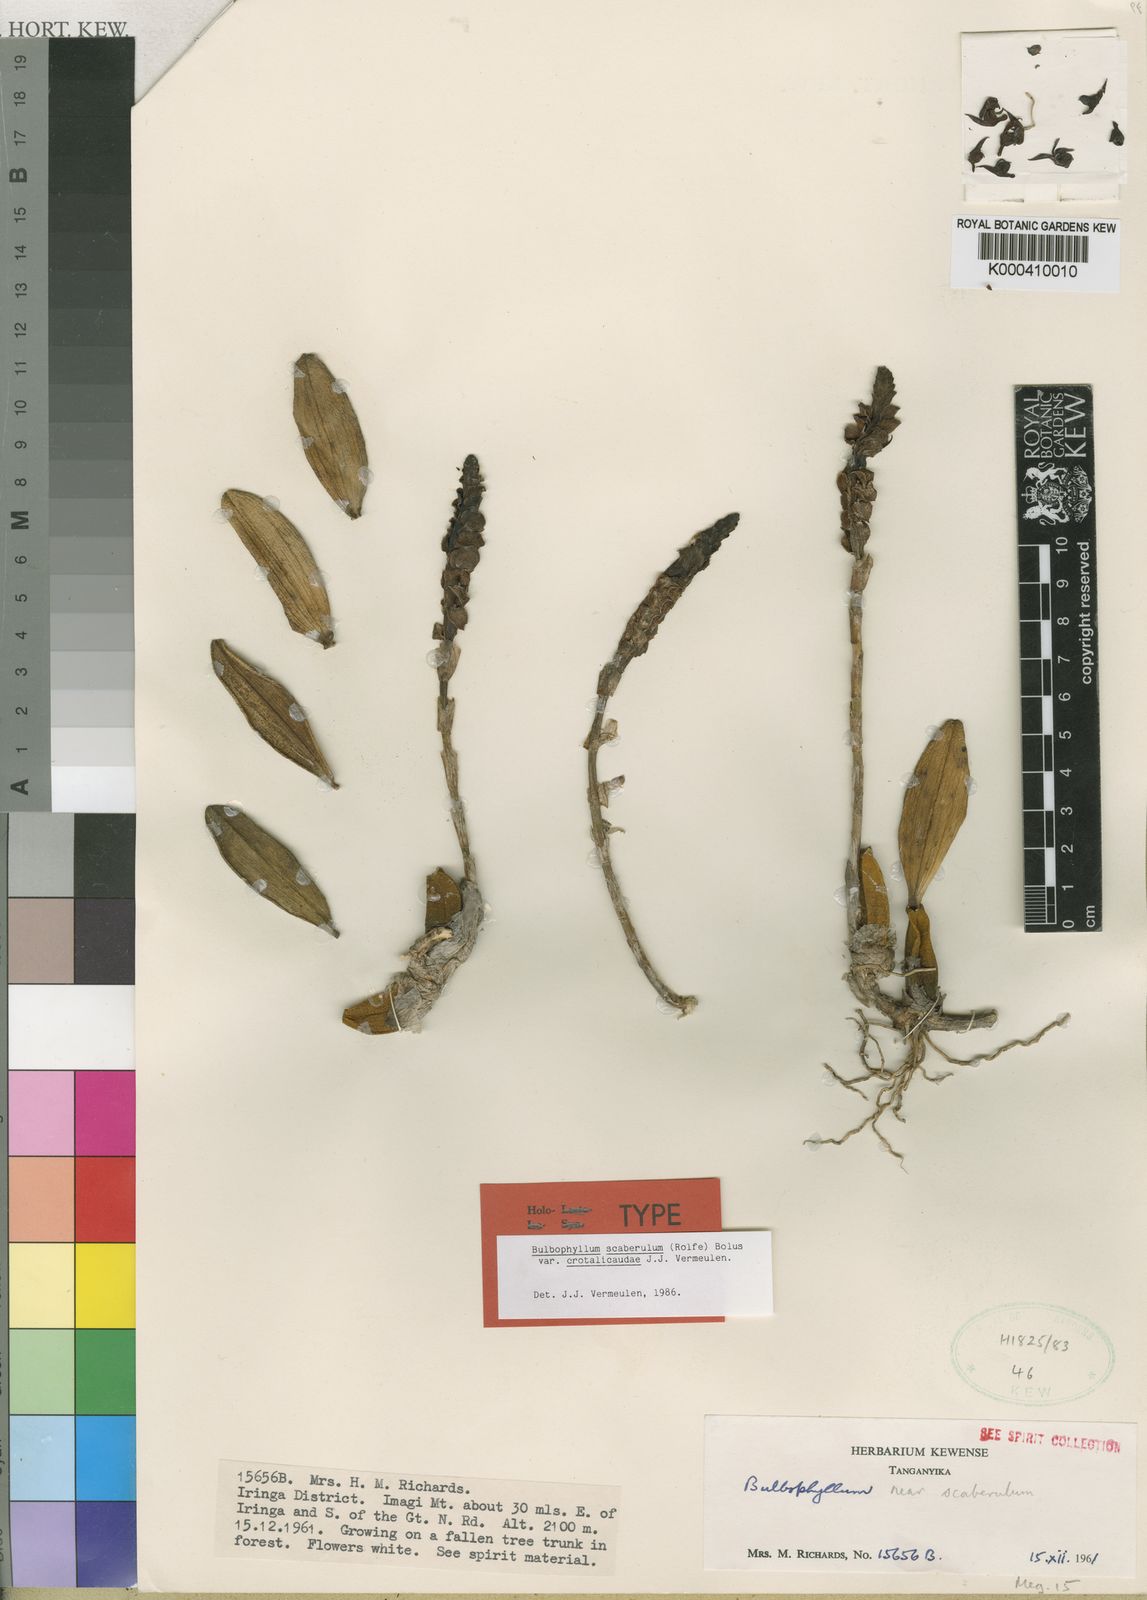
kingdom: Plantae
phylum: Tracheophyta
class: Liliopsida
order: Asparagales
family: Orchidaceae
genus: Bulbophyllum
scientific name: Bulbophyllum scaberulum
